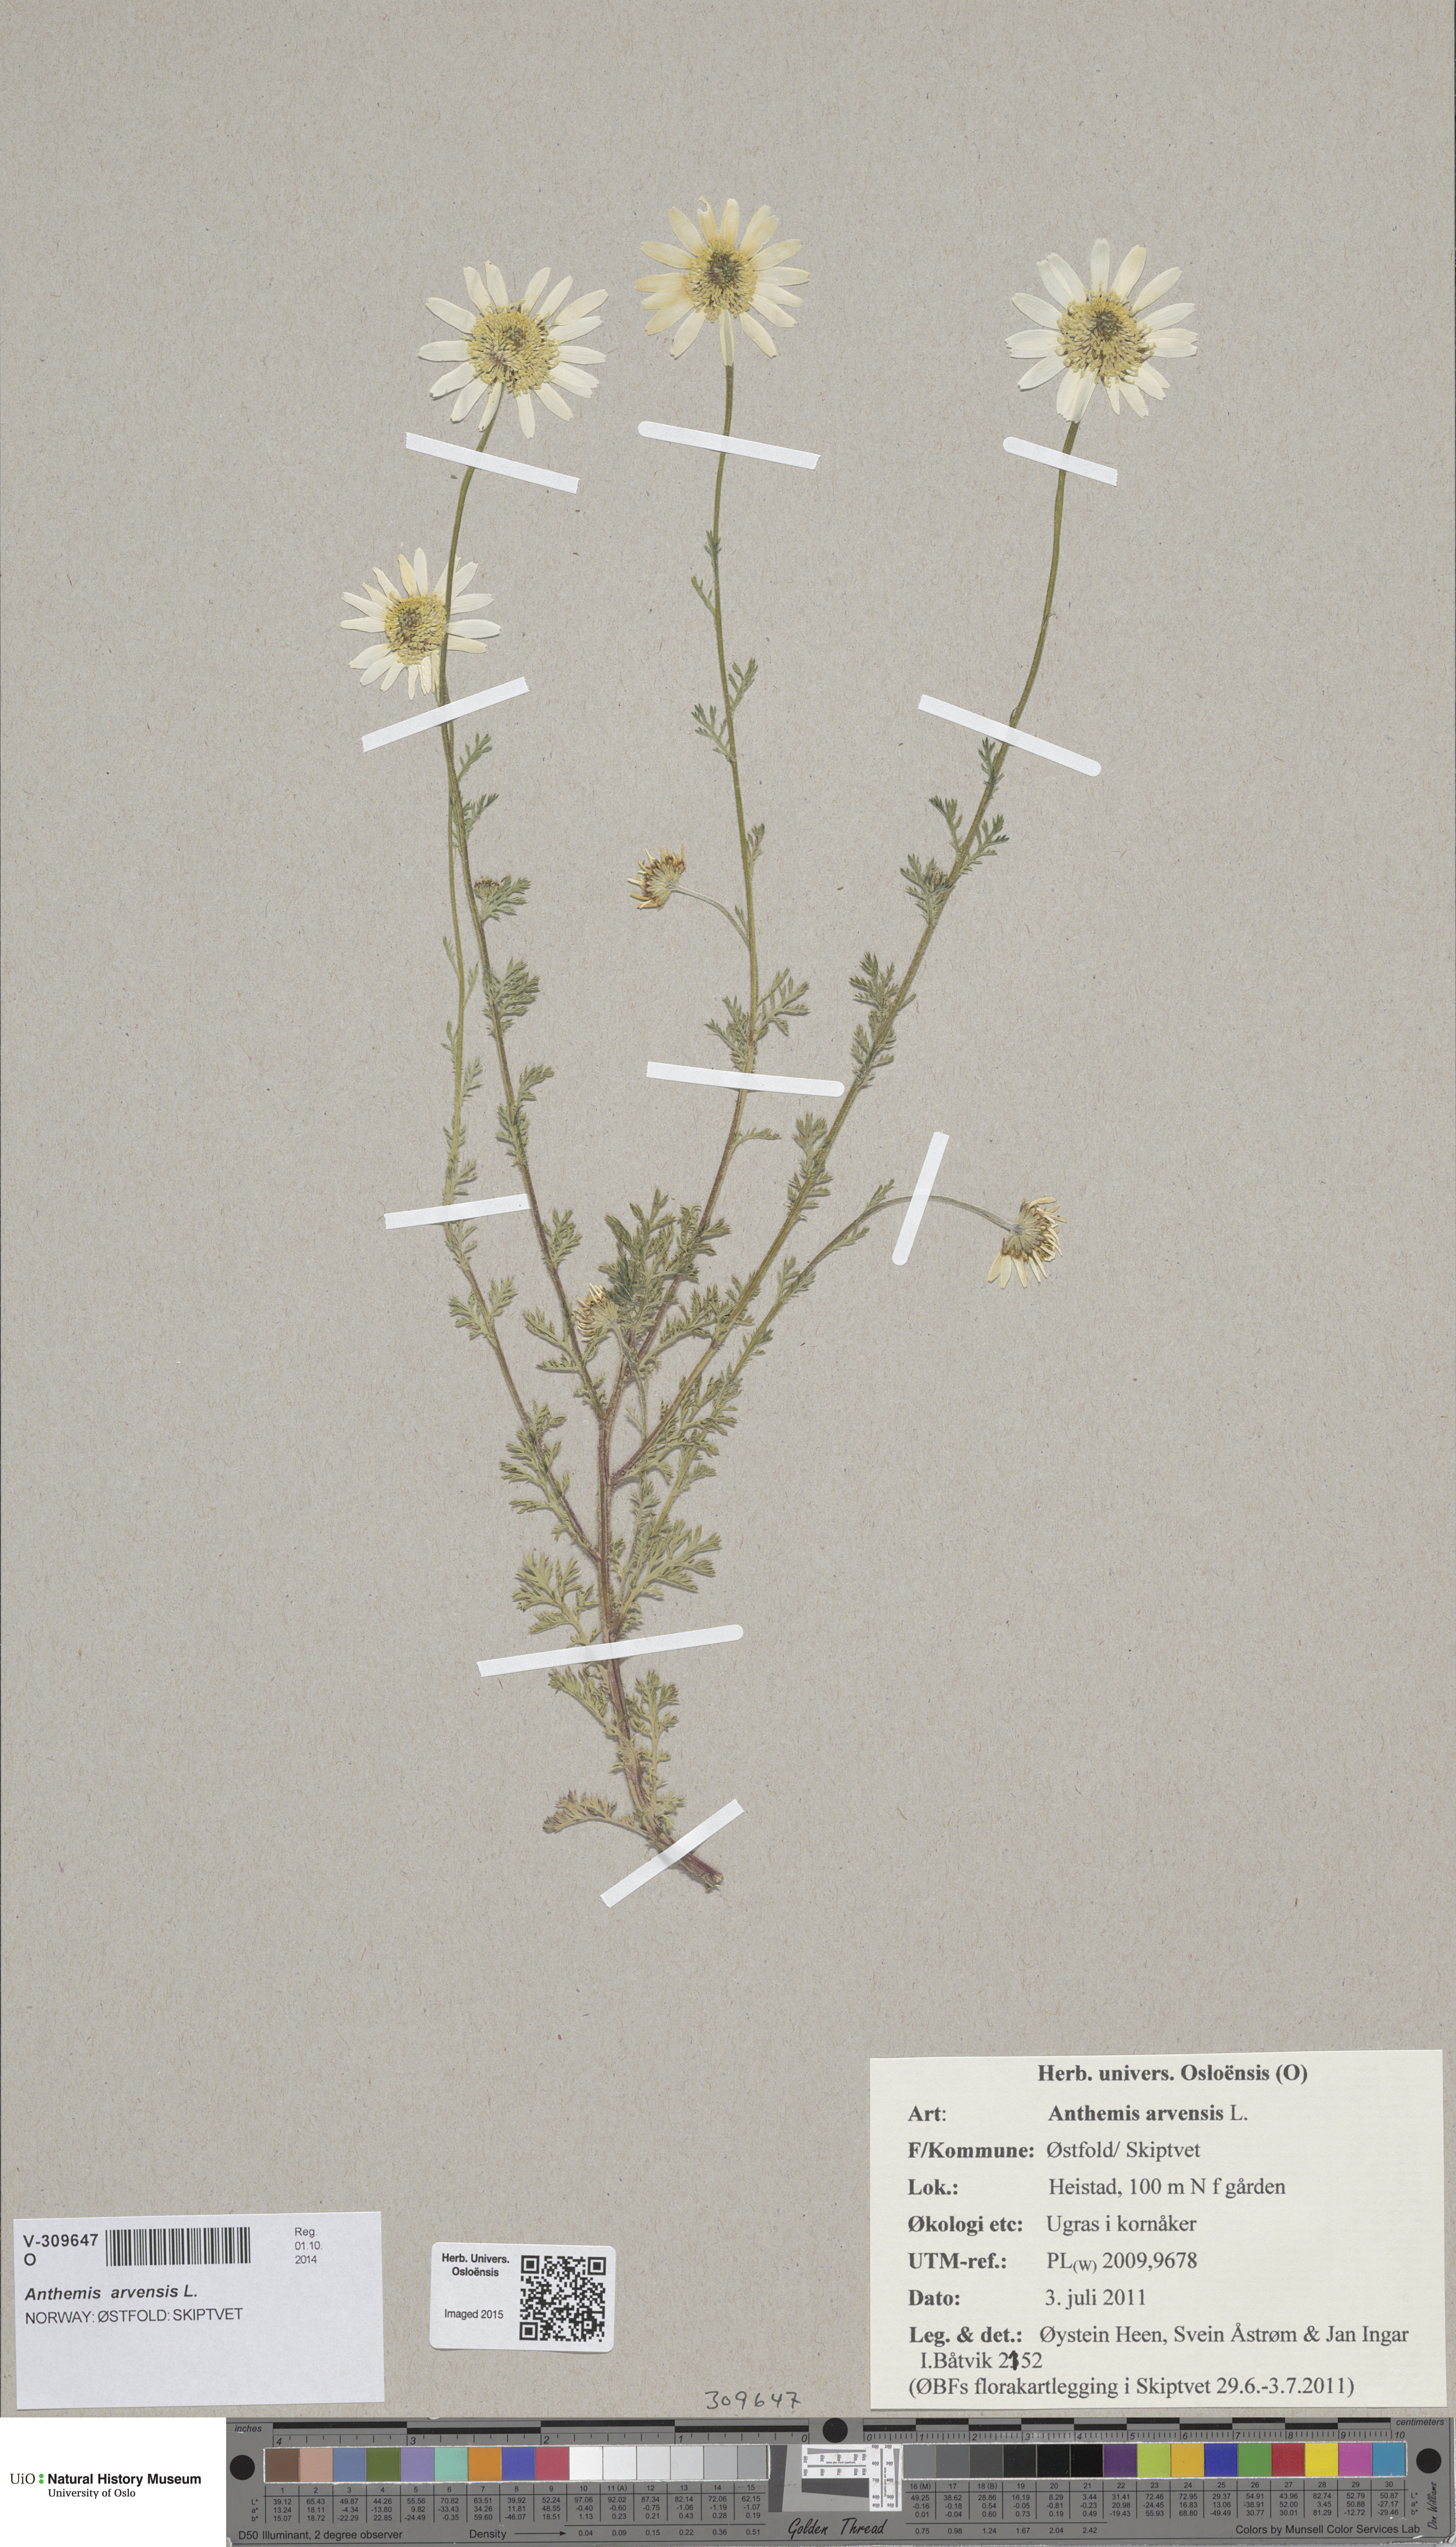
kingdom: Plantae
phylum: Tracheophyta
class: Magnoliopsida
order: Asterales
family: Asteraceae
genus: Anthemis
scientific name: Anthemis arvensis
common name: Corn chamomile
